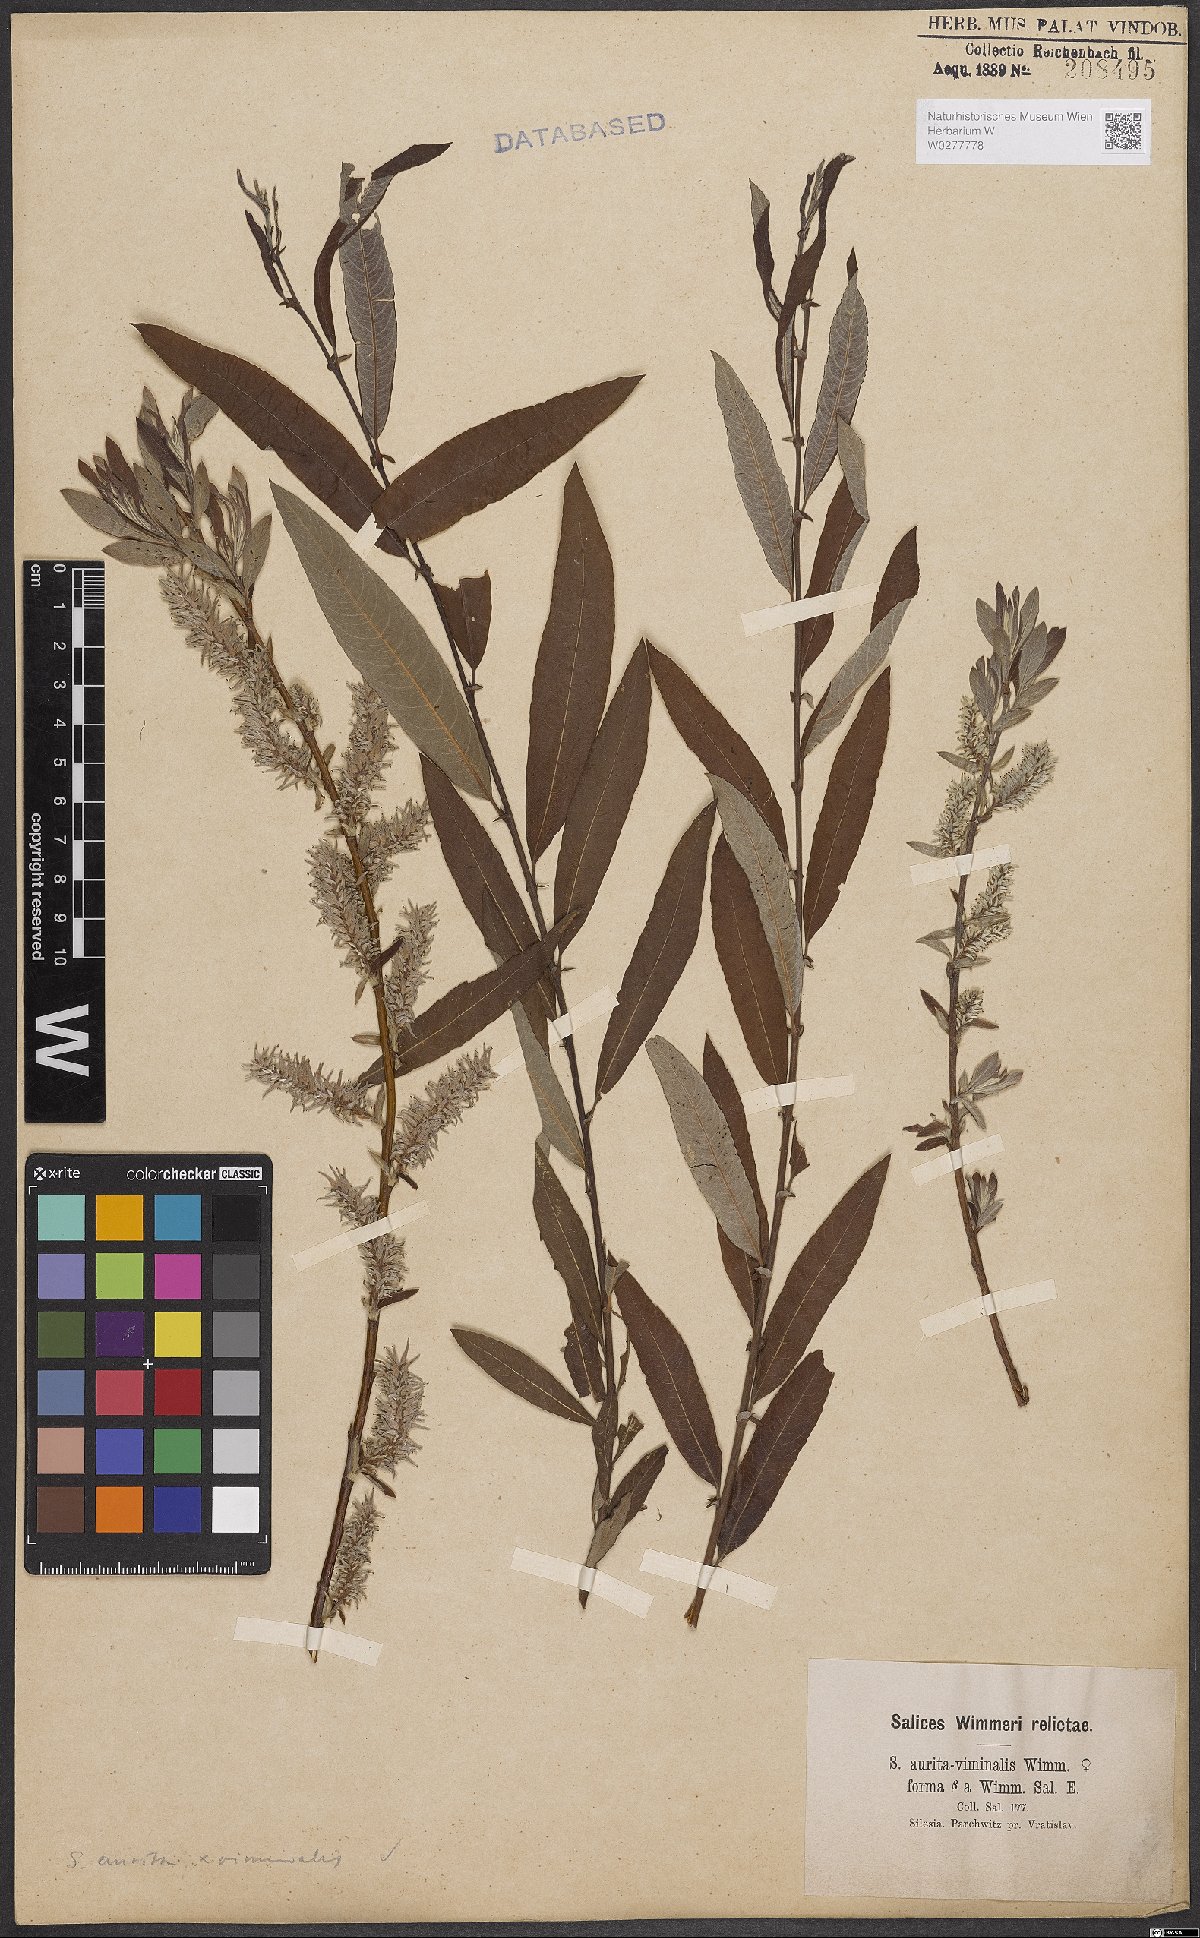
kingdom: Plantae
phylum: Tracheophyta
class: Magnoliopsida
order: Malpighiales
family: Salicaceae
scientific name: Salicaceae
